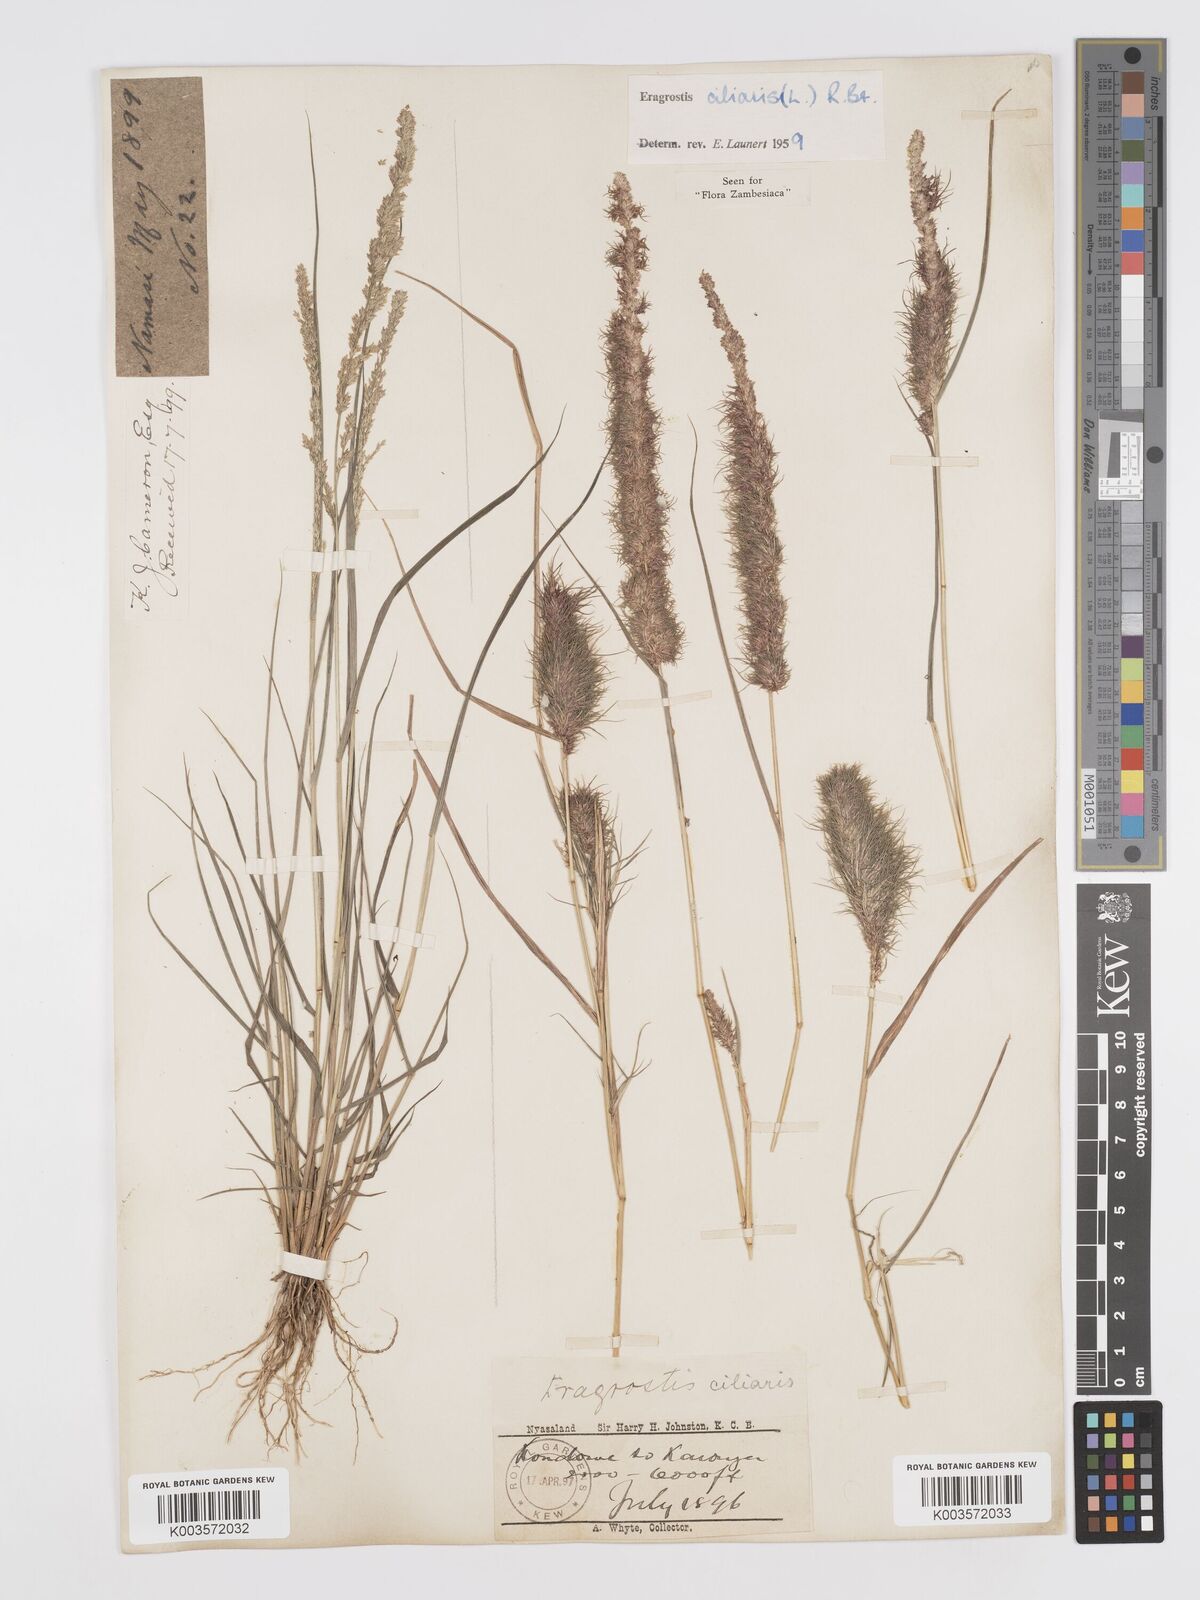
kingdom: Plantae
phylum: Tracheophyta
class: Liliopsida
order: Poales
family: Poaceae
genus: Eragrostis
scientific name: Eragrostis ciliaris
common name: Gophertail lovegrass
